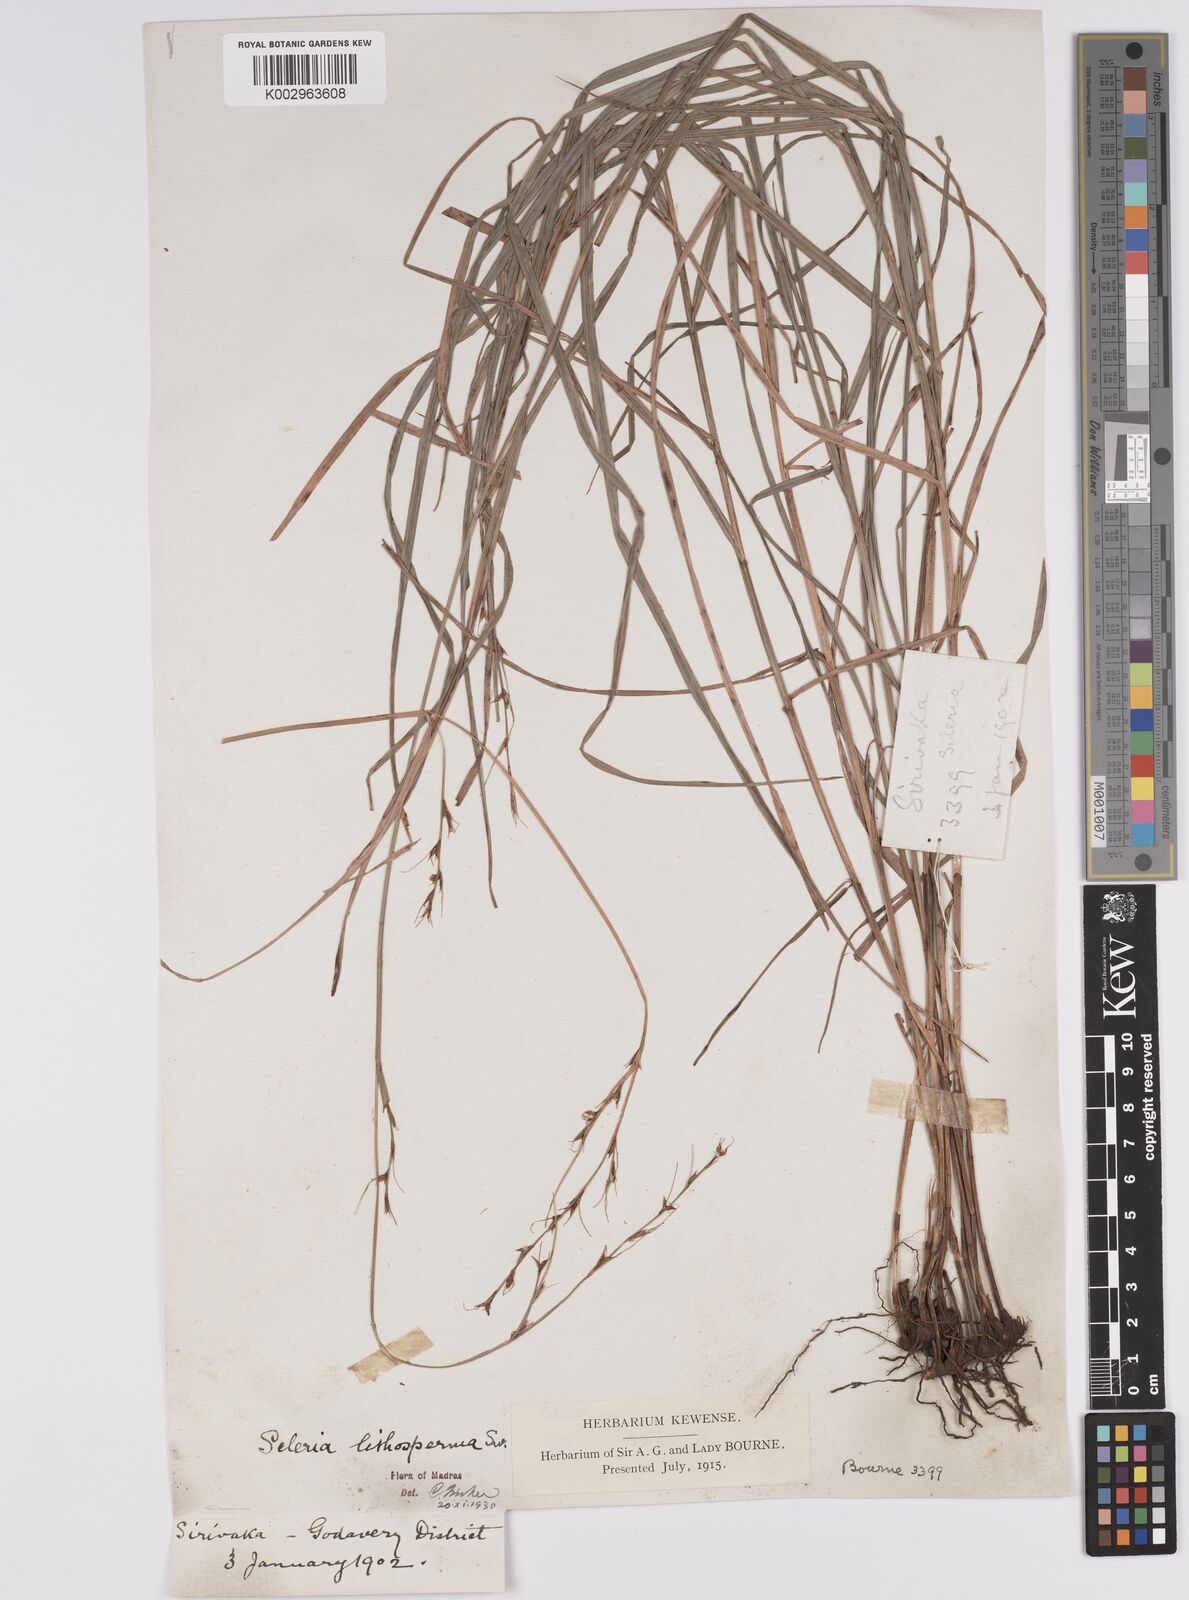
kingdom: Plantae
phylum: Tracheophyta
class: Liliopsida
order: Poales
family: Cyperaceae
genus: Scleria
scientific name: Scleria lithosperma
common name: Florida keys nut-rush
